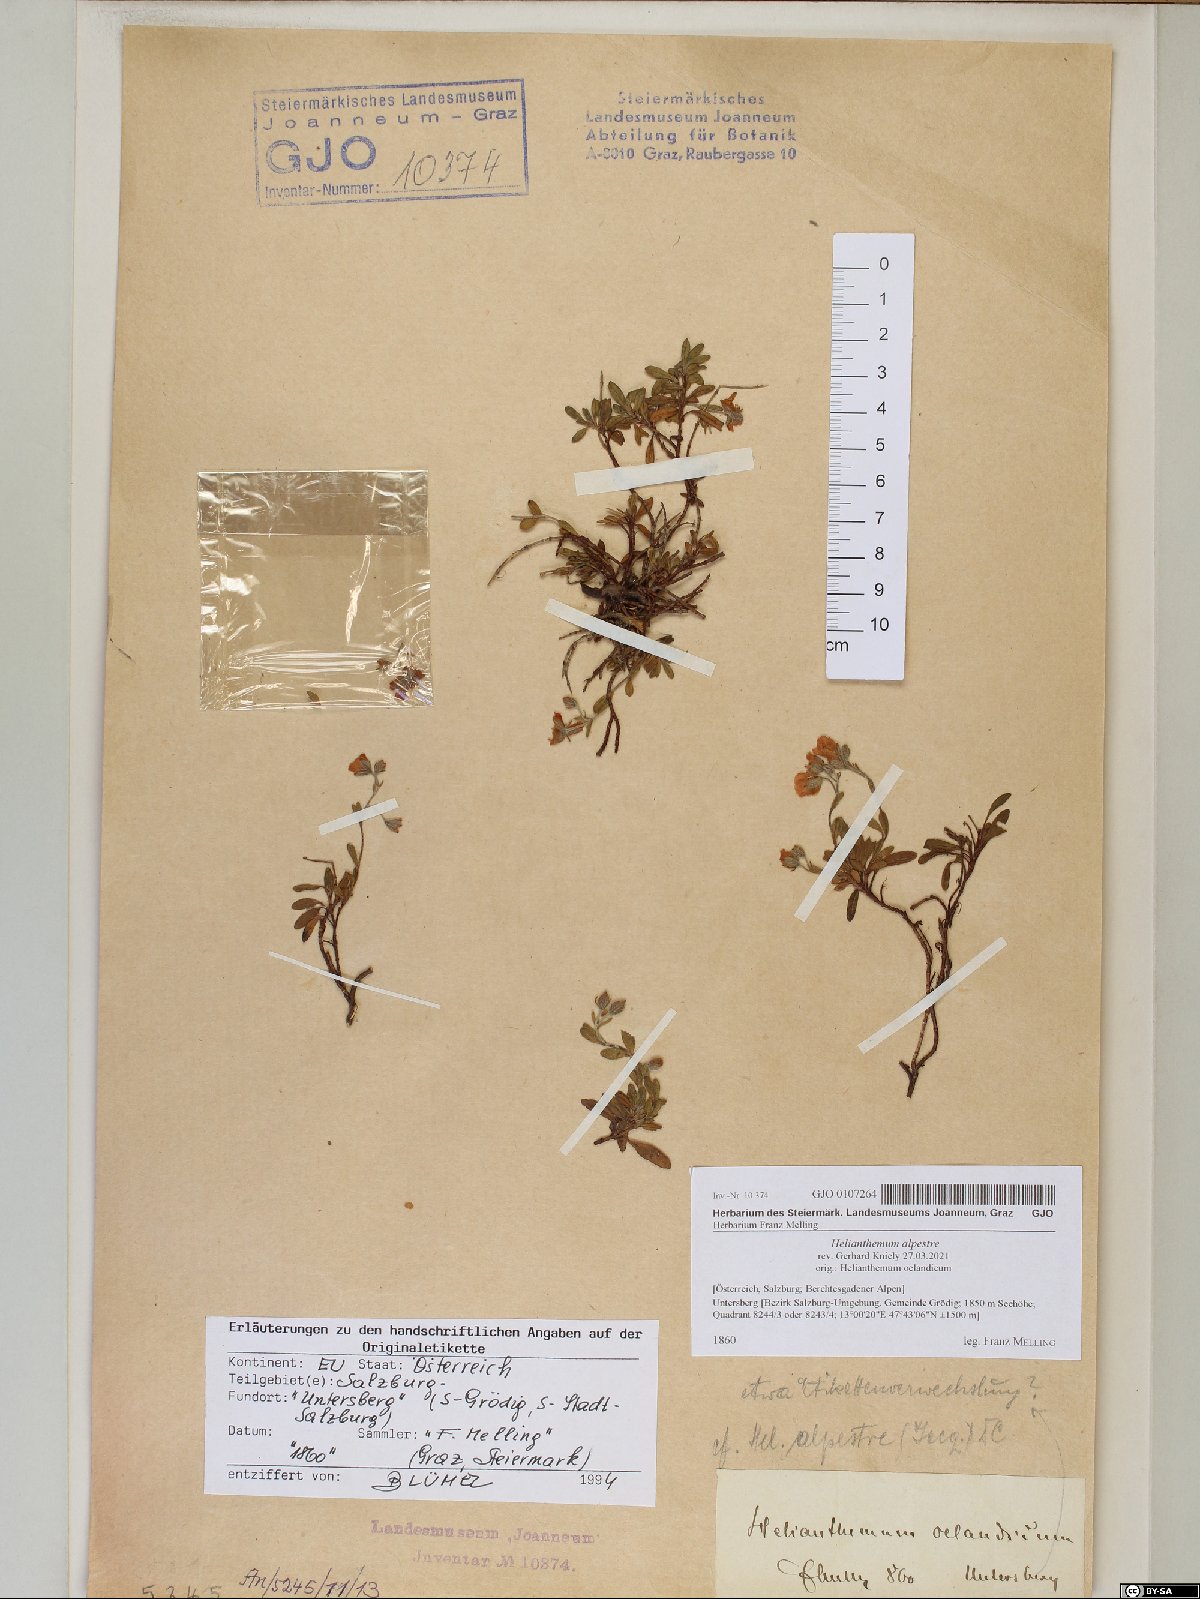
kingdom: Plantae
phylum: Tracheophyta
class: Magnoliopsida
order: Malvales
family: Cistaceae
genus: Helianthemum
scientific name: Helianthemum alpestre
